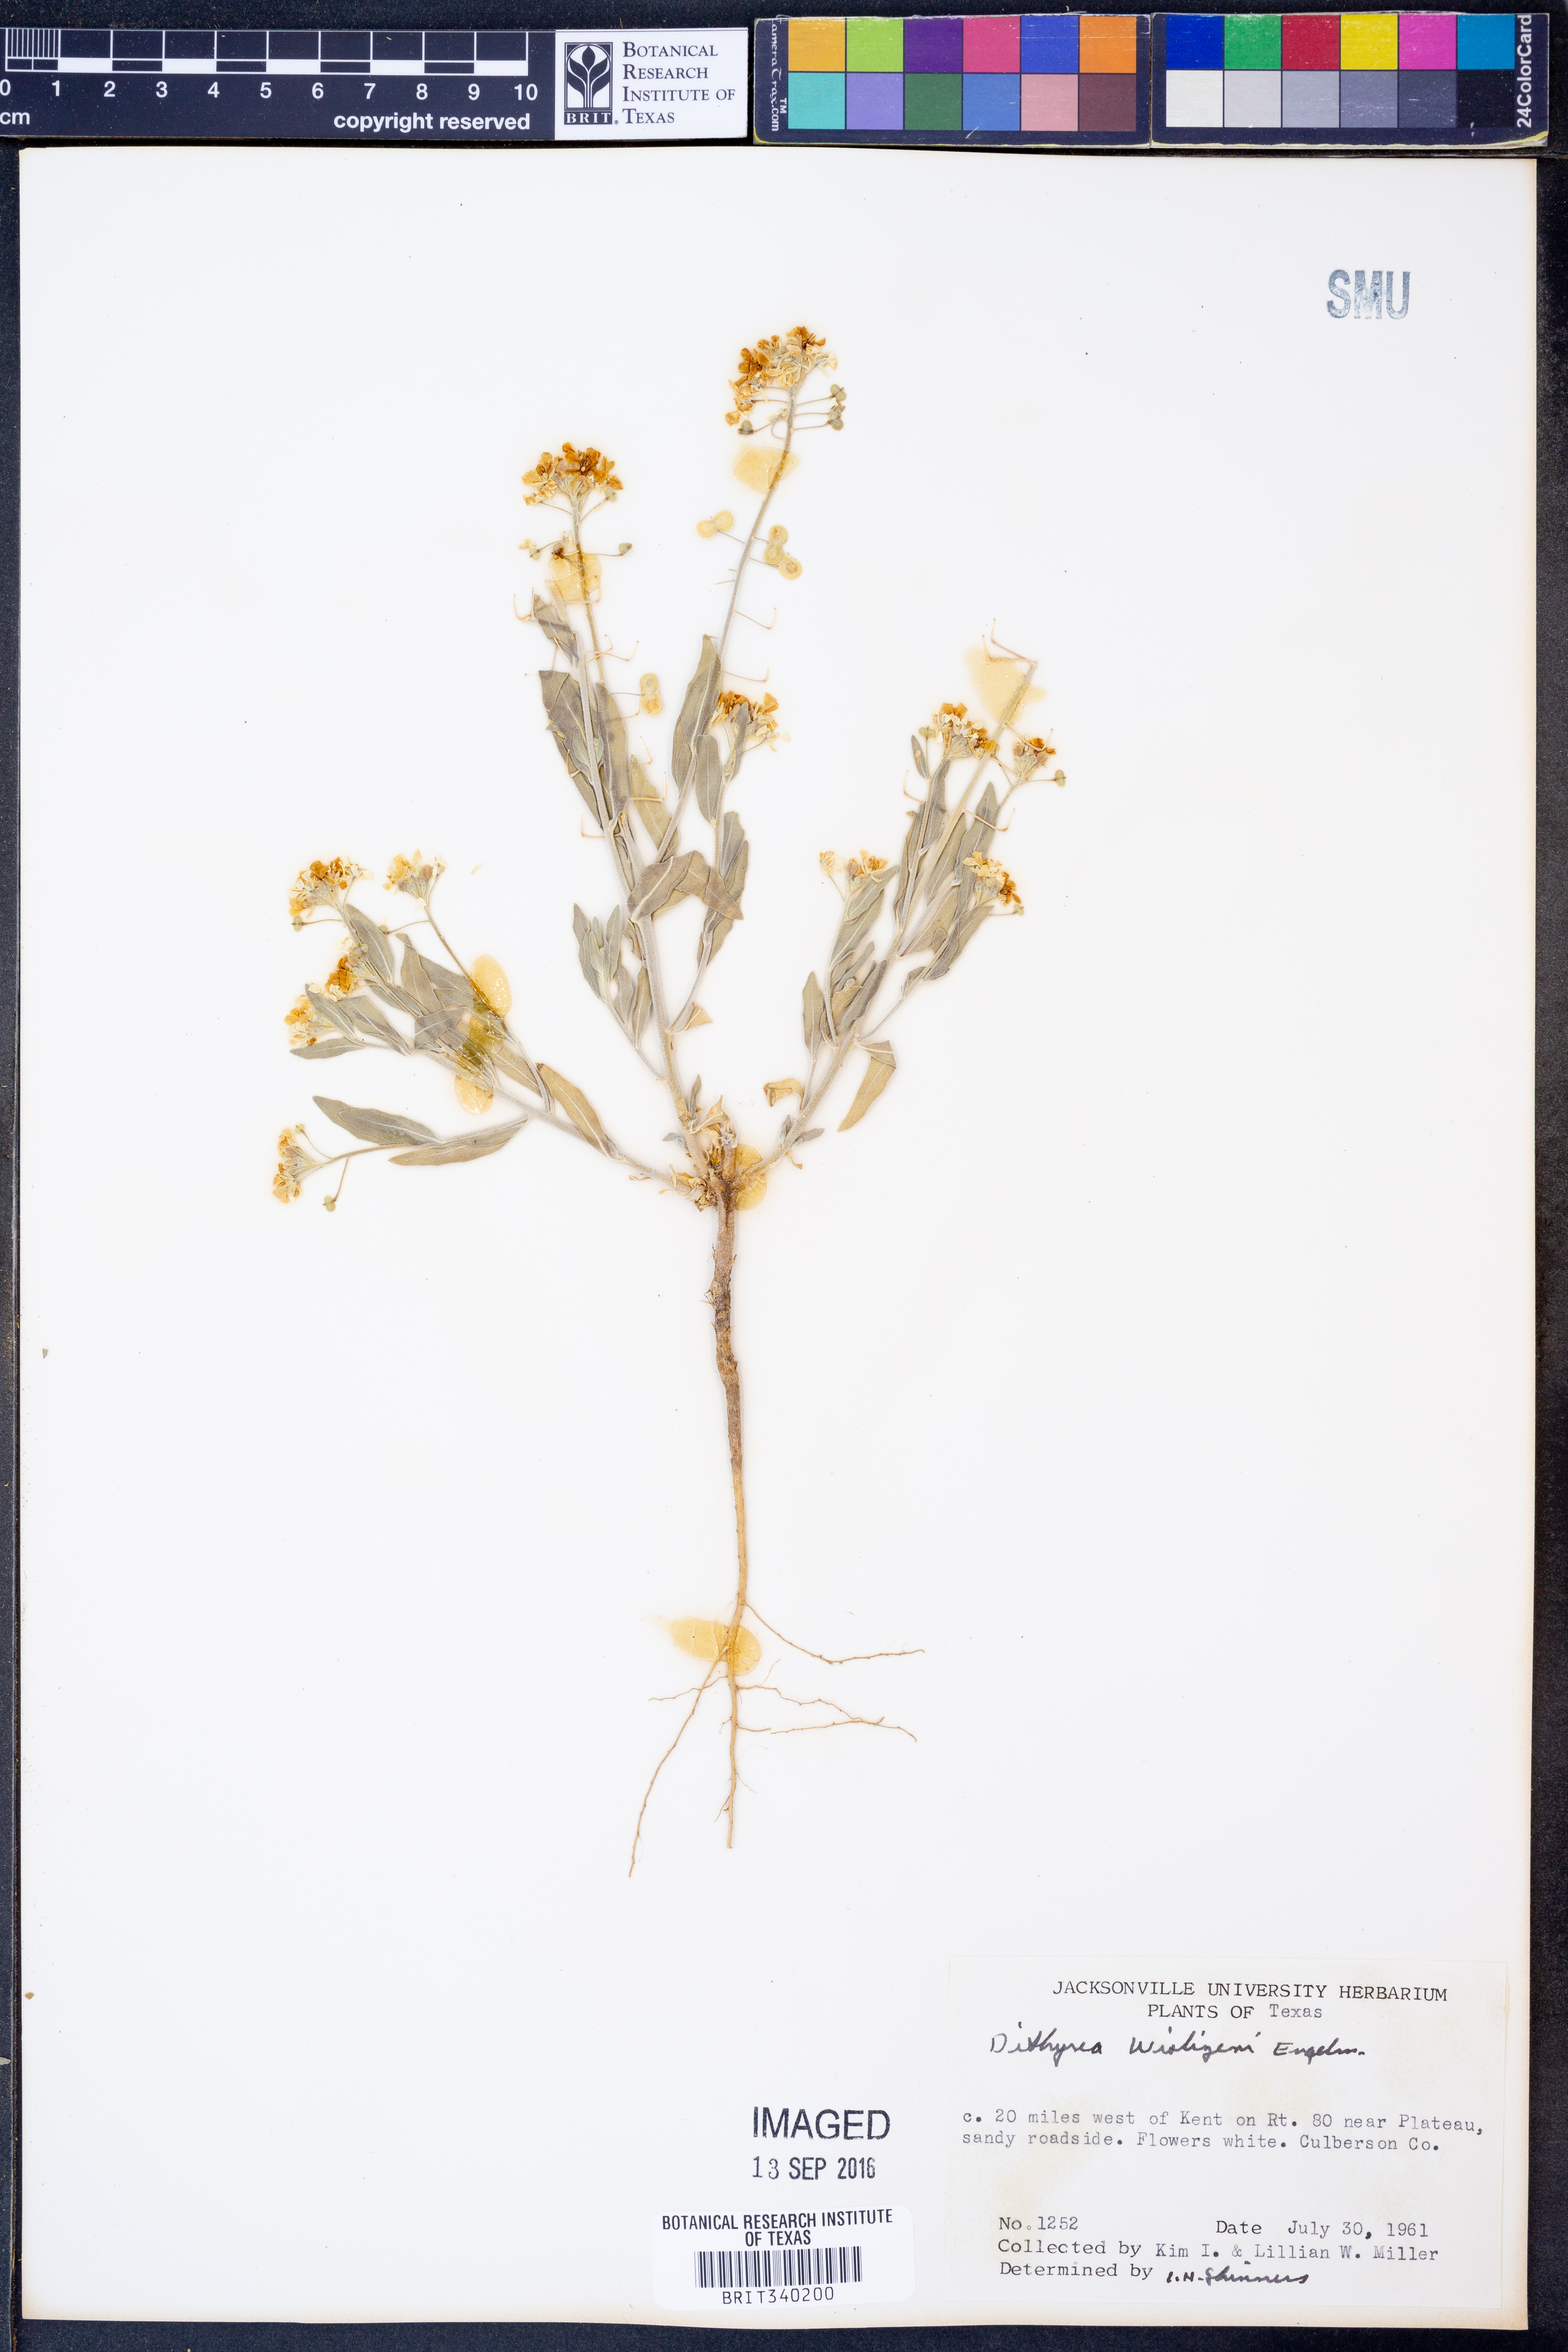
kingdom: Plantae
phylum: Tracheophyta
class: Magnoliopsida
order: Brassicales
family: Brassicaceae
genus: Dimorphocarpa
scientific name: Dimorphocarpa wislizenii
